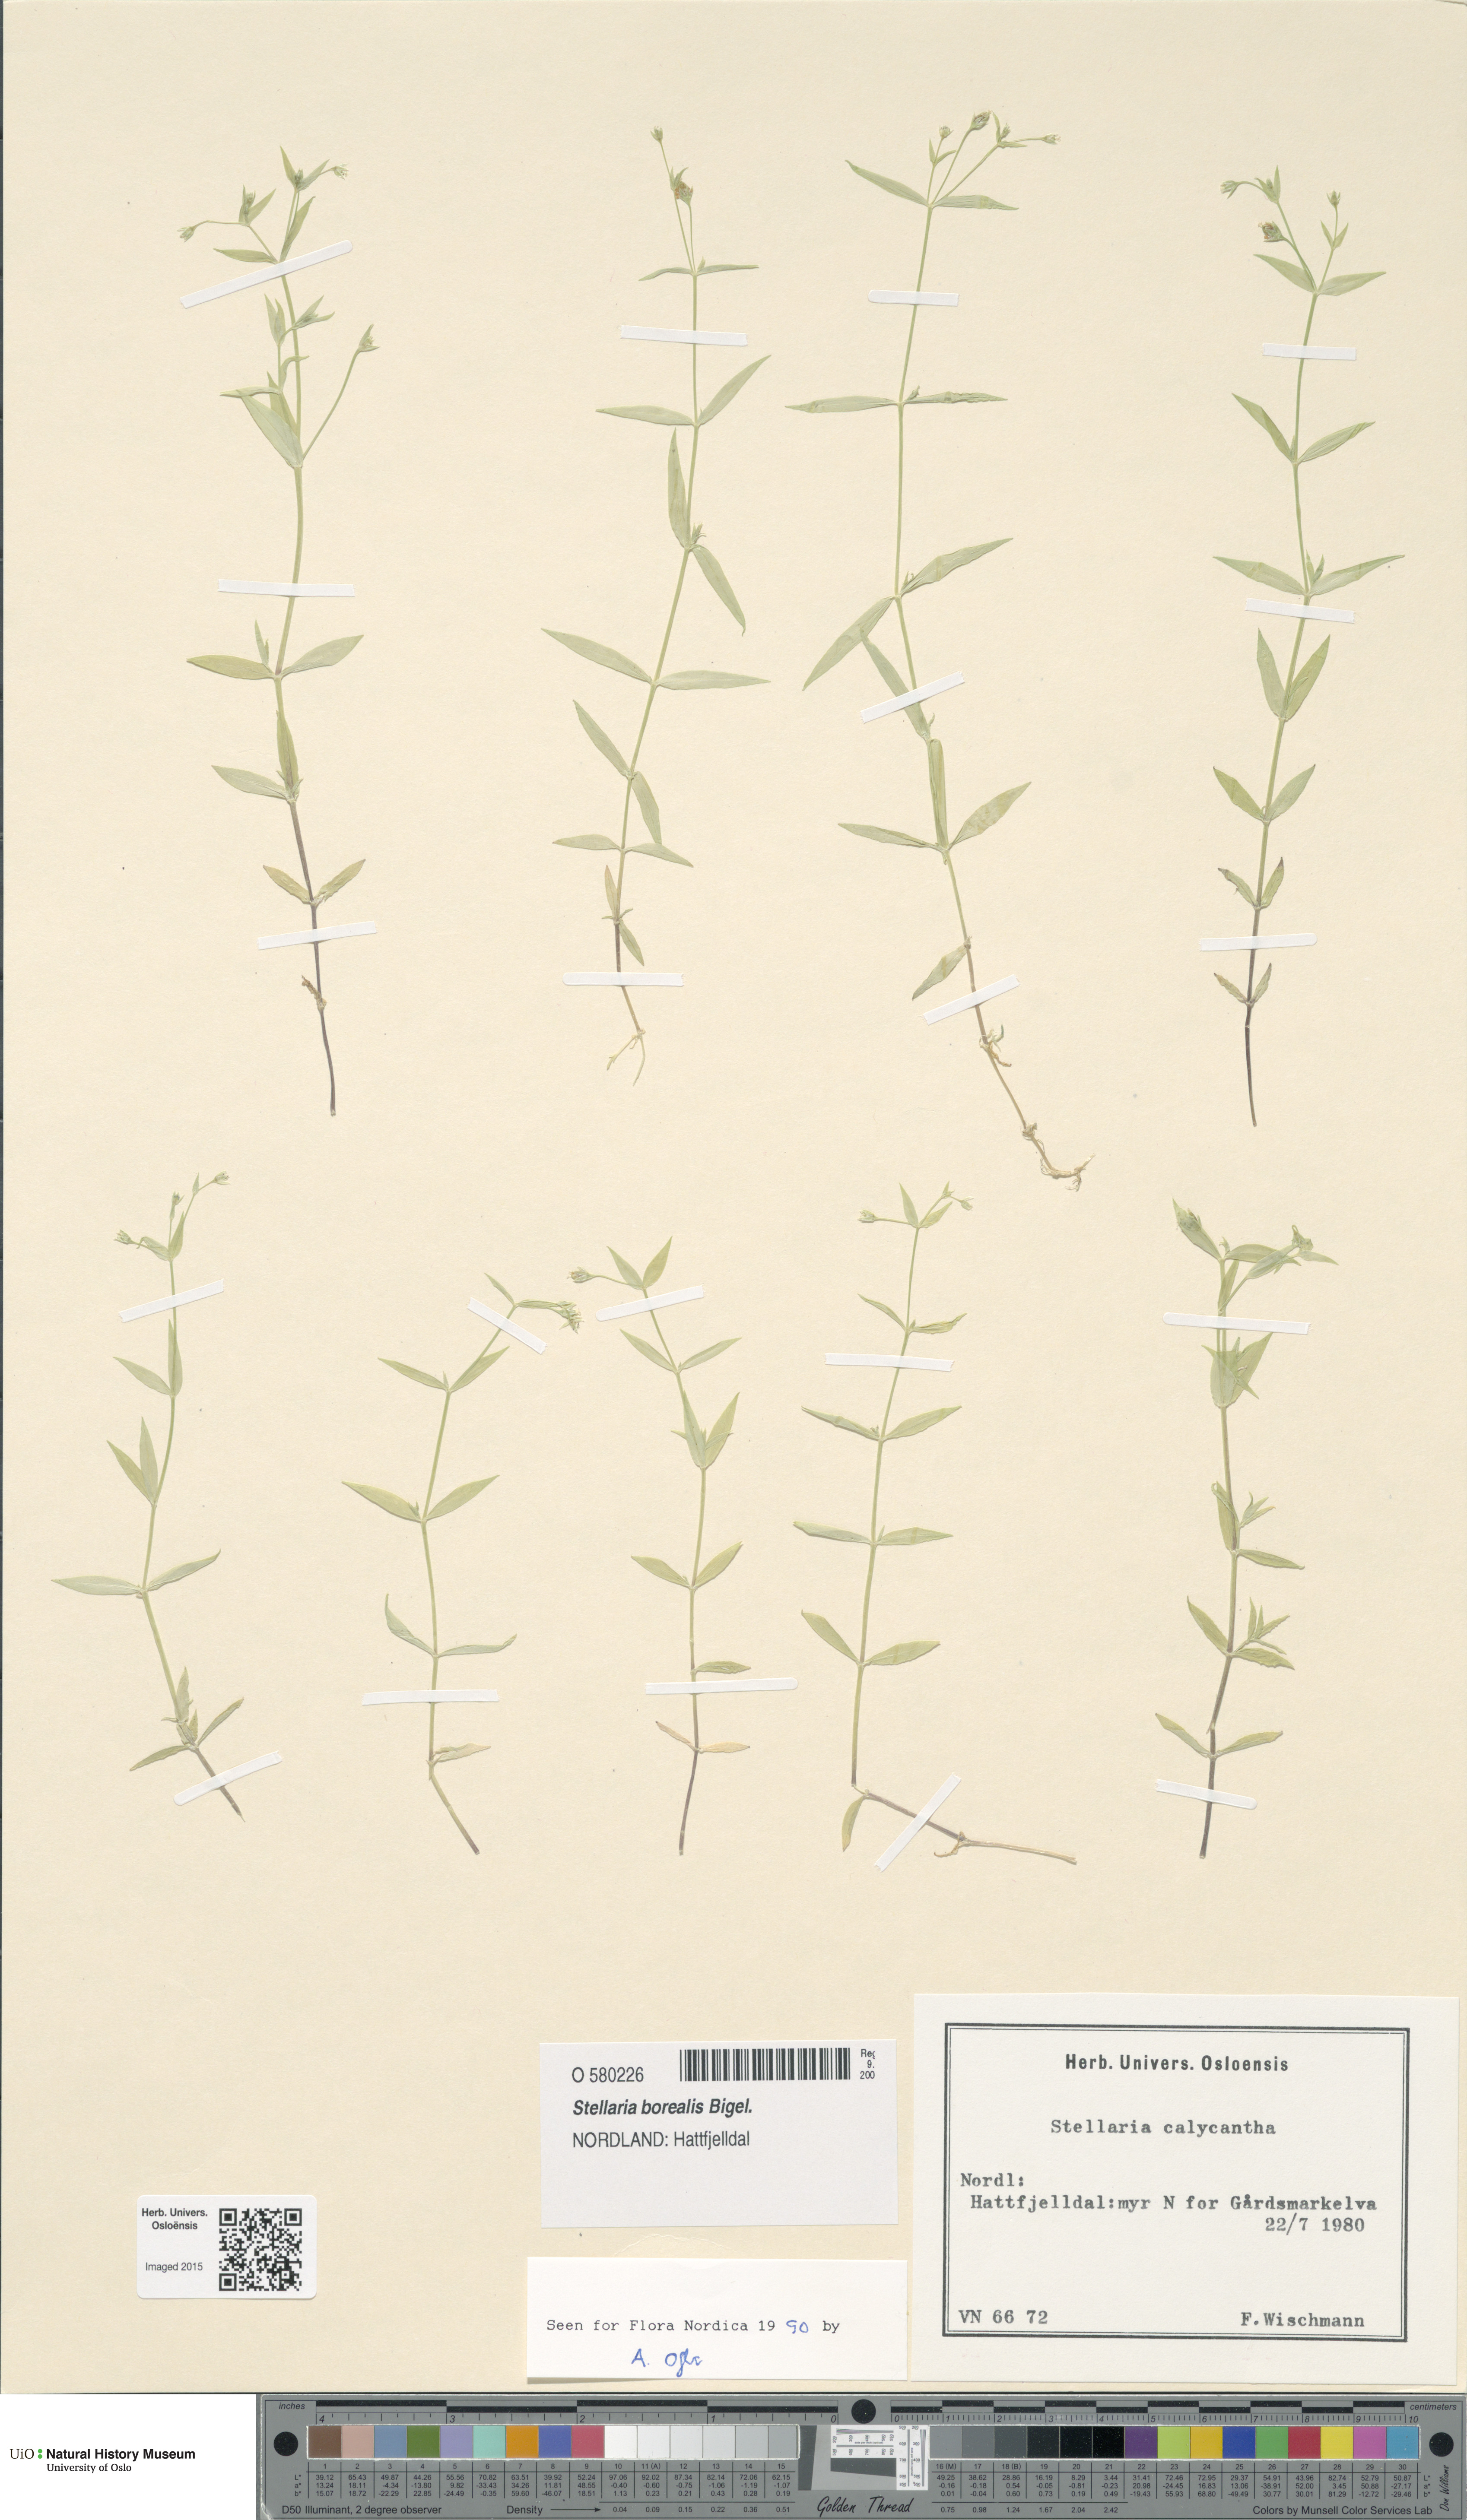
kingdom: Plantae
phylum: Tracheophyta
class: Magnoliopsida
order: Caryophyllales
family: Caryophyllaceae
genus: Stellaria
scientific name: Stellaria borealis
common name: Boreal starwort
